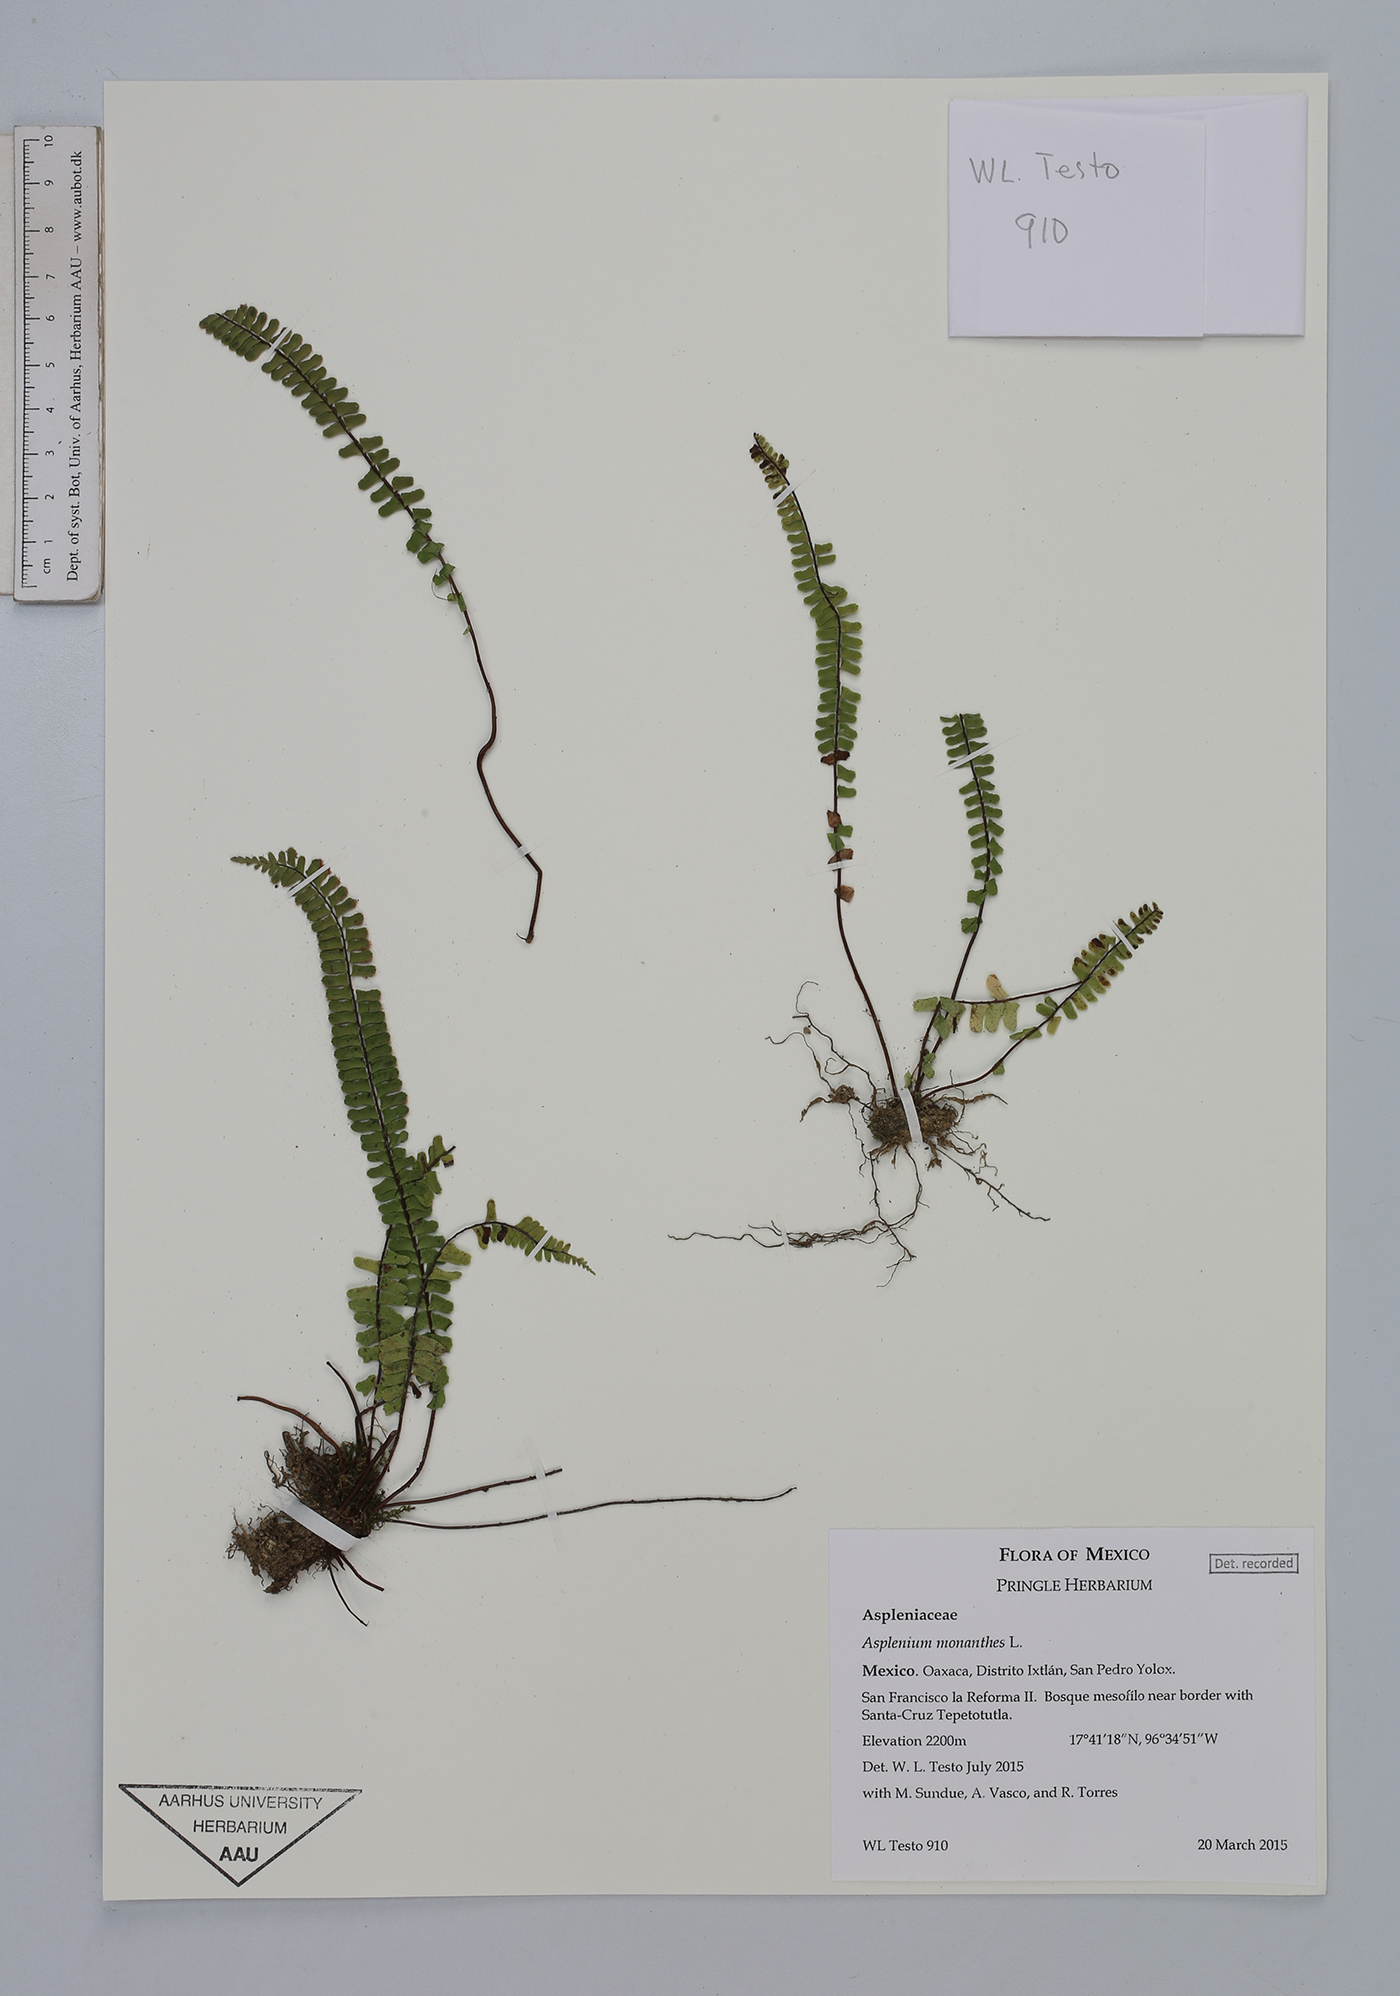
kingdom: Plantae
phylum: Tracheophyta
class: Polypodiopsida
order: Polypodiales
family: Aspleniaceae
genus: Asplenium
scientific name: Asplenium monanthes
